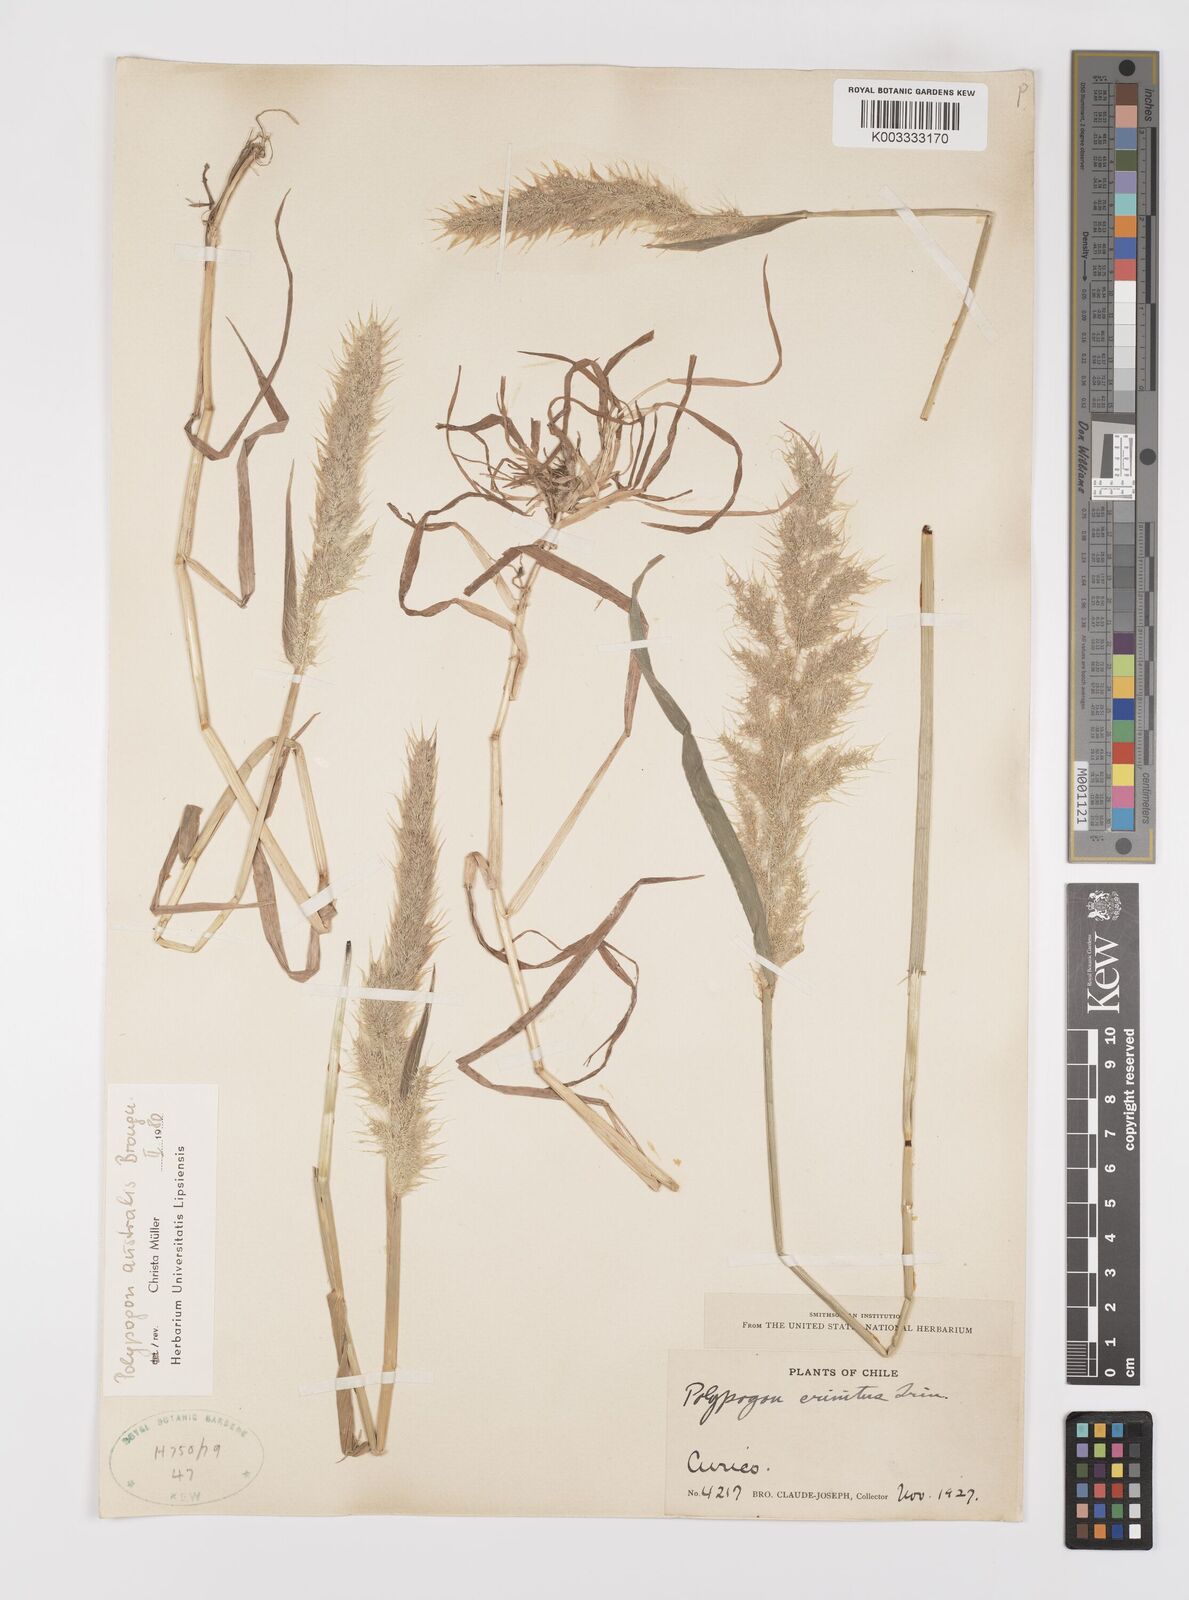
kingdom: Plantae
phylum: Tracheophyta
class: Liliopsida
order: Poales
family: Poaceae
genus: Polypogon
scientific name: Polypogon australis
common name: Chilean rabbitsfoot grass
